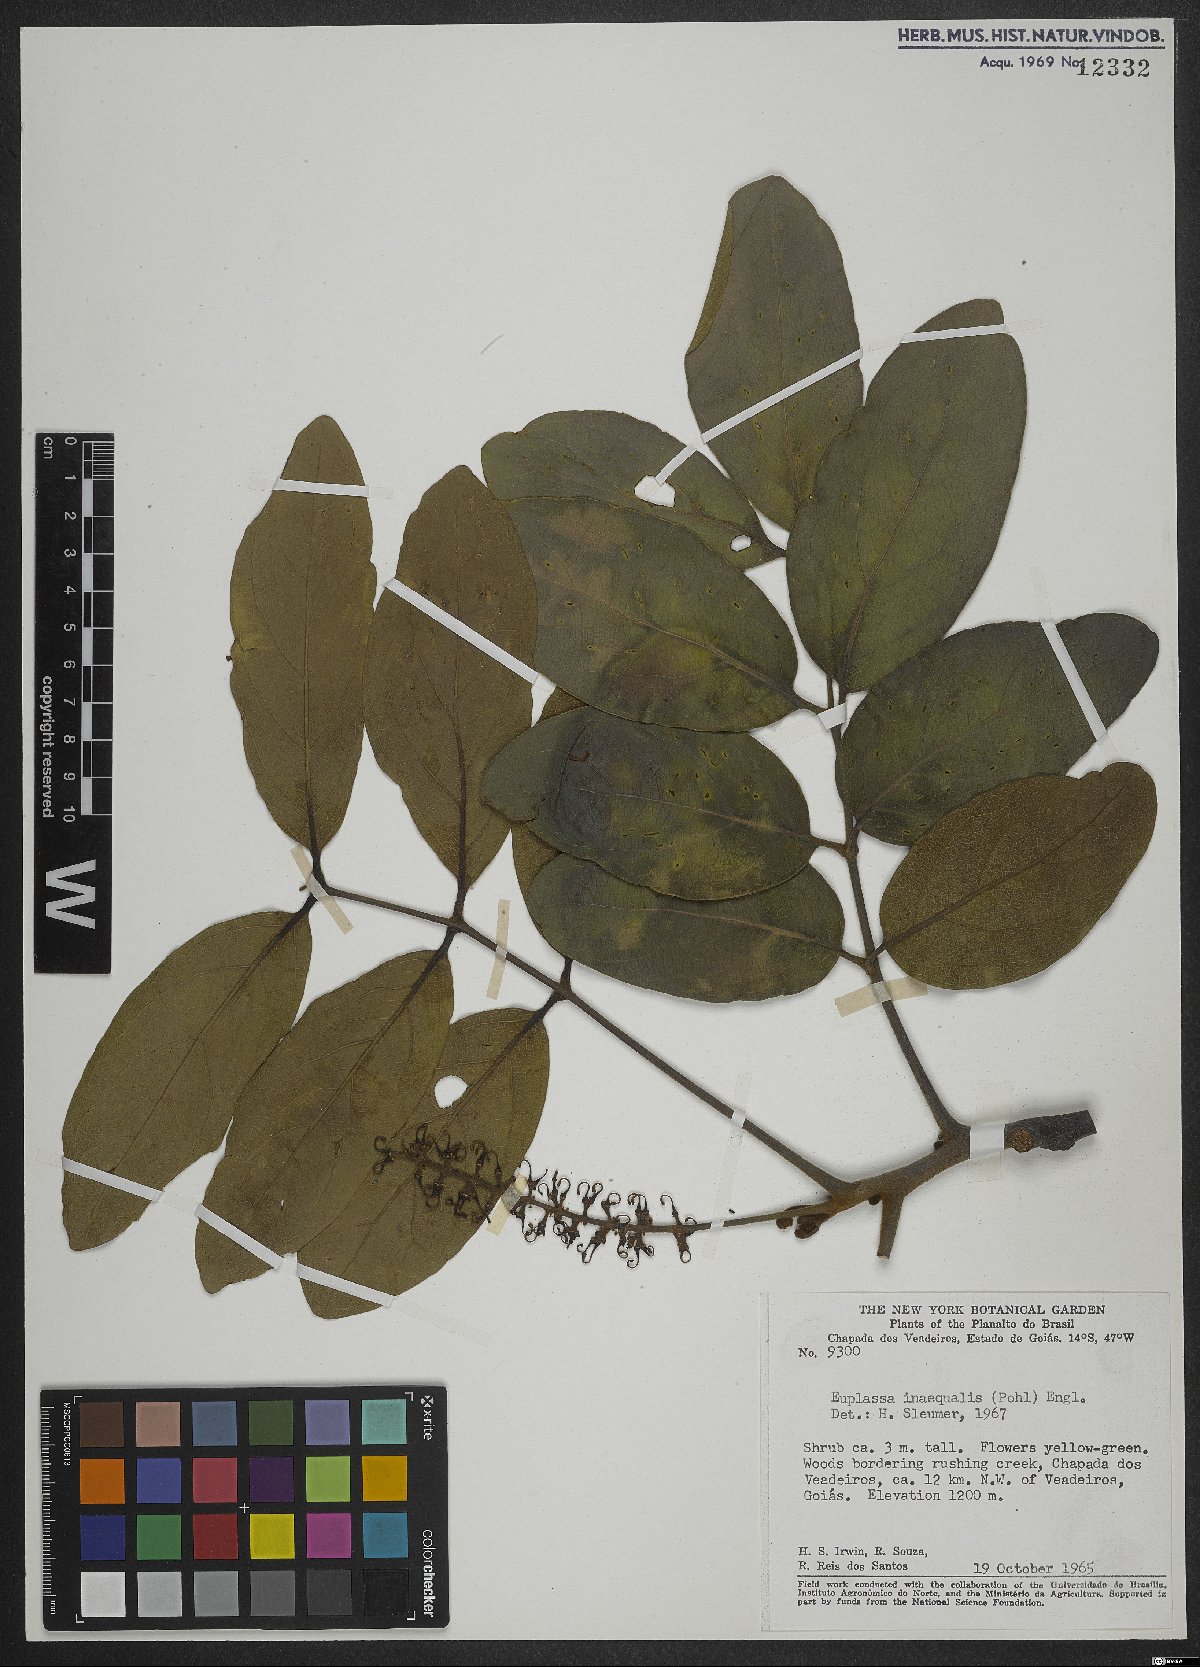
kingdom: Plantae
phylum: Tracheophyta
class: Magnoliopsida
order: Proteales
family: Proteaceae
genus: Euplassa
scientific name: Euplassa inaequalis
